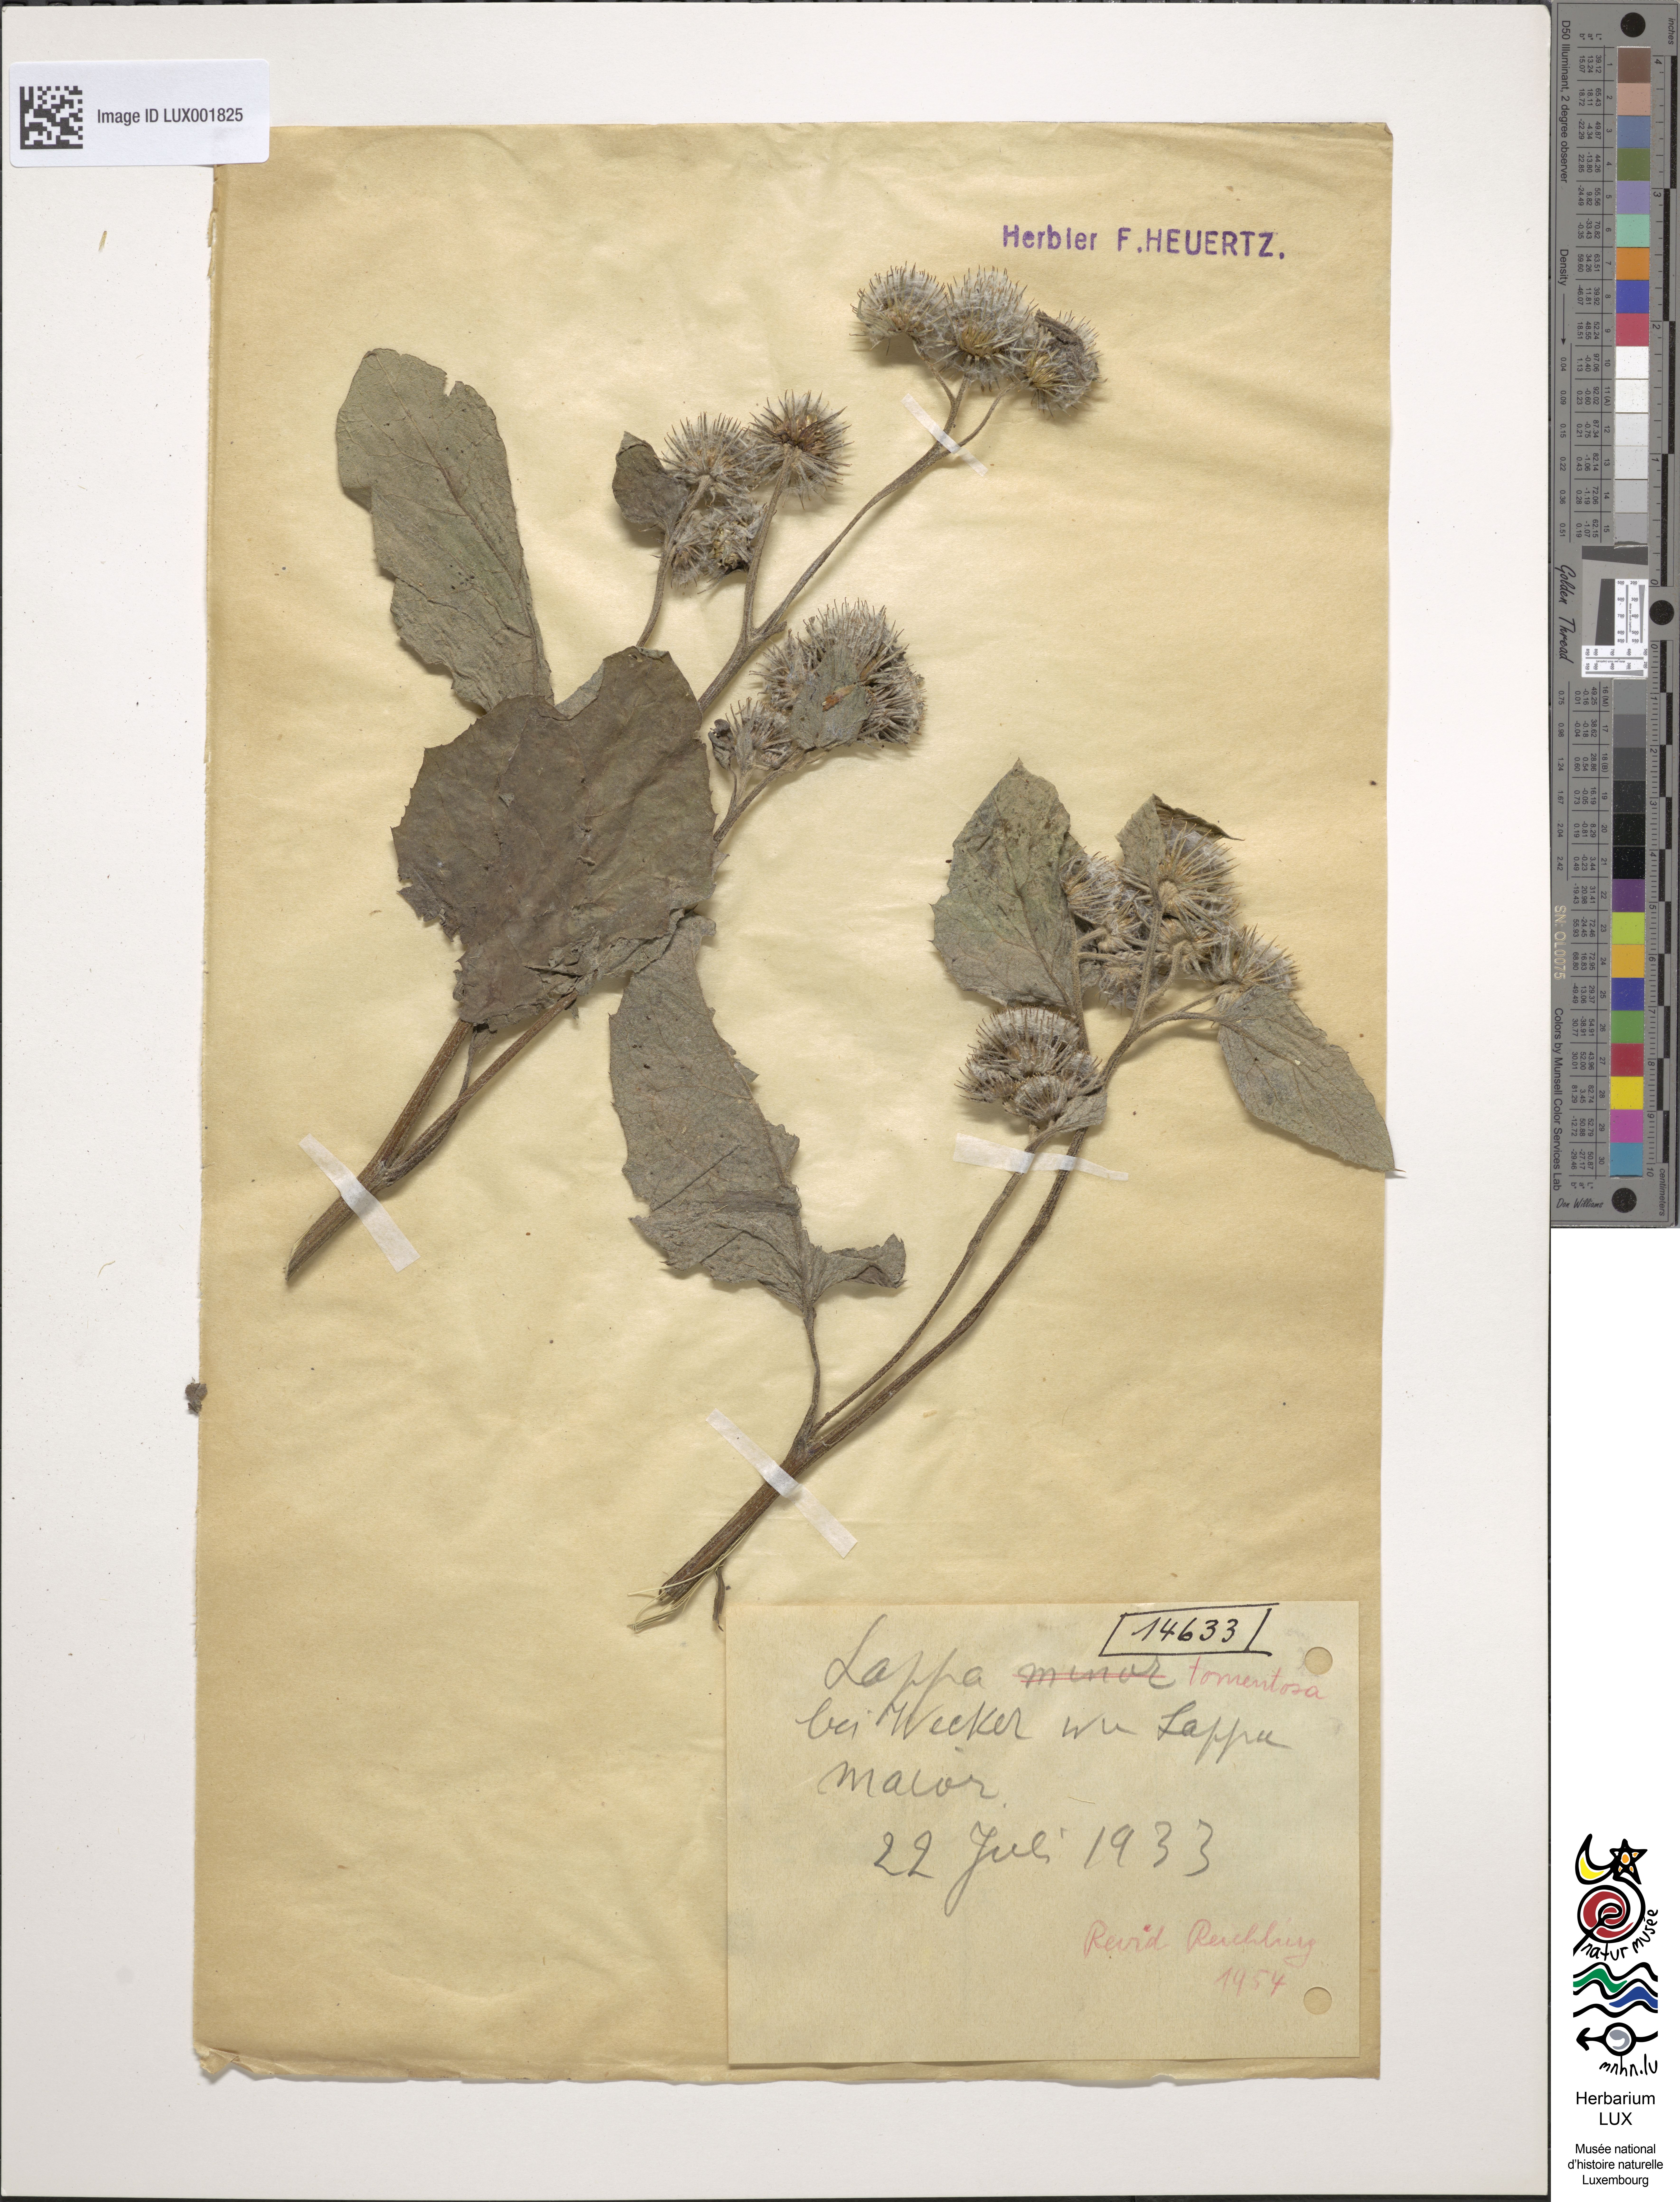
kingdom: Plantae
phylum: Tracheophyta
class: Magnoliopsida
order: Asterales
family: Asteraceae
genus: Arctium
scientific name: Arctium minus
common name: Lesser burdock
